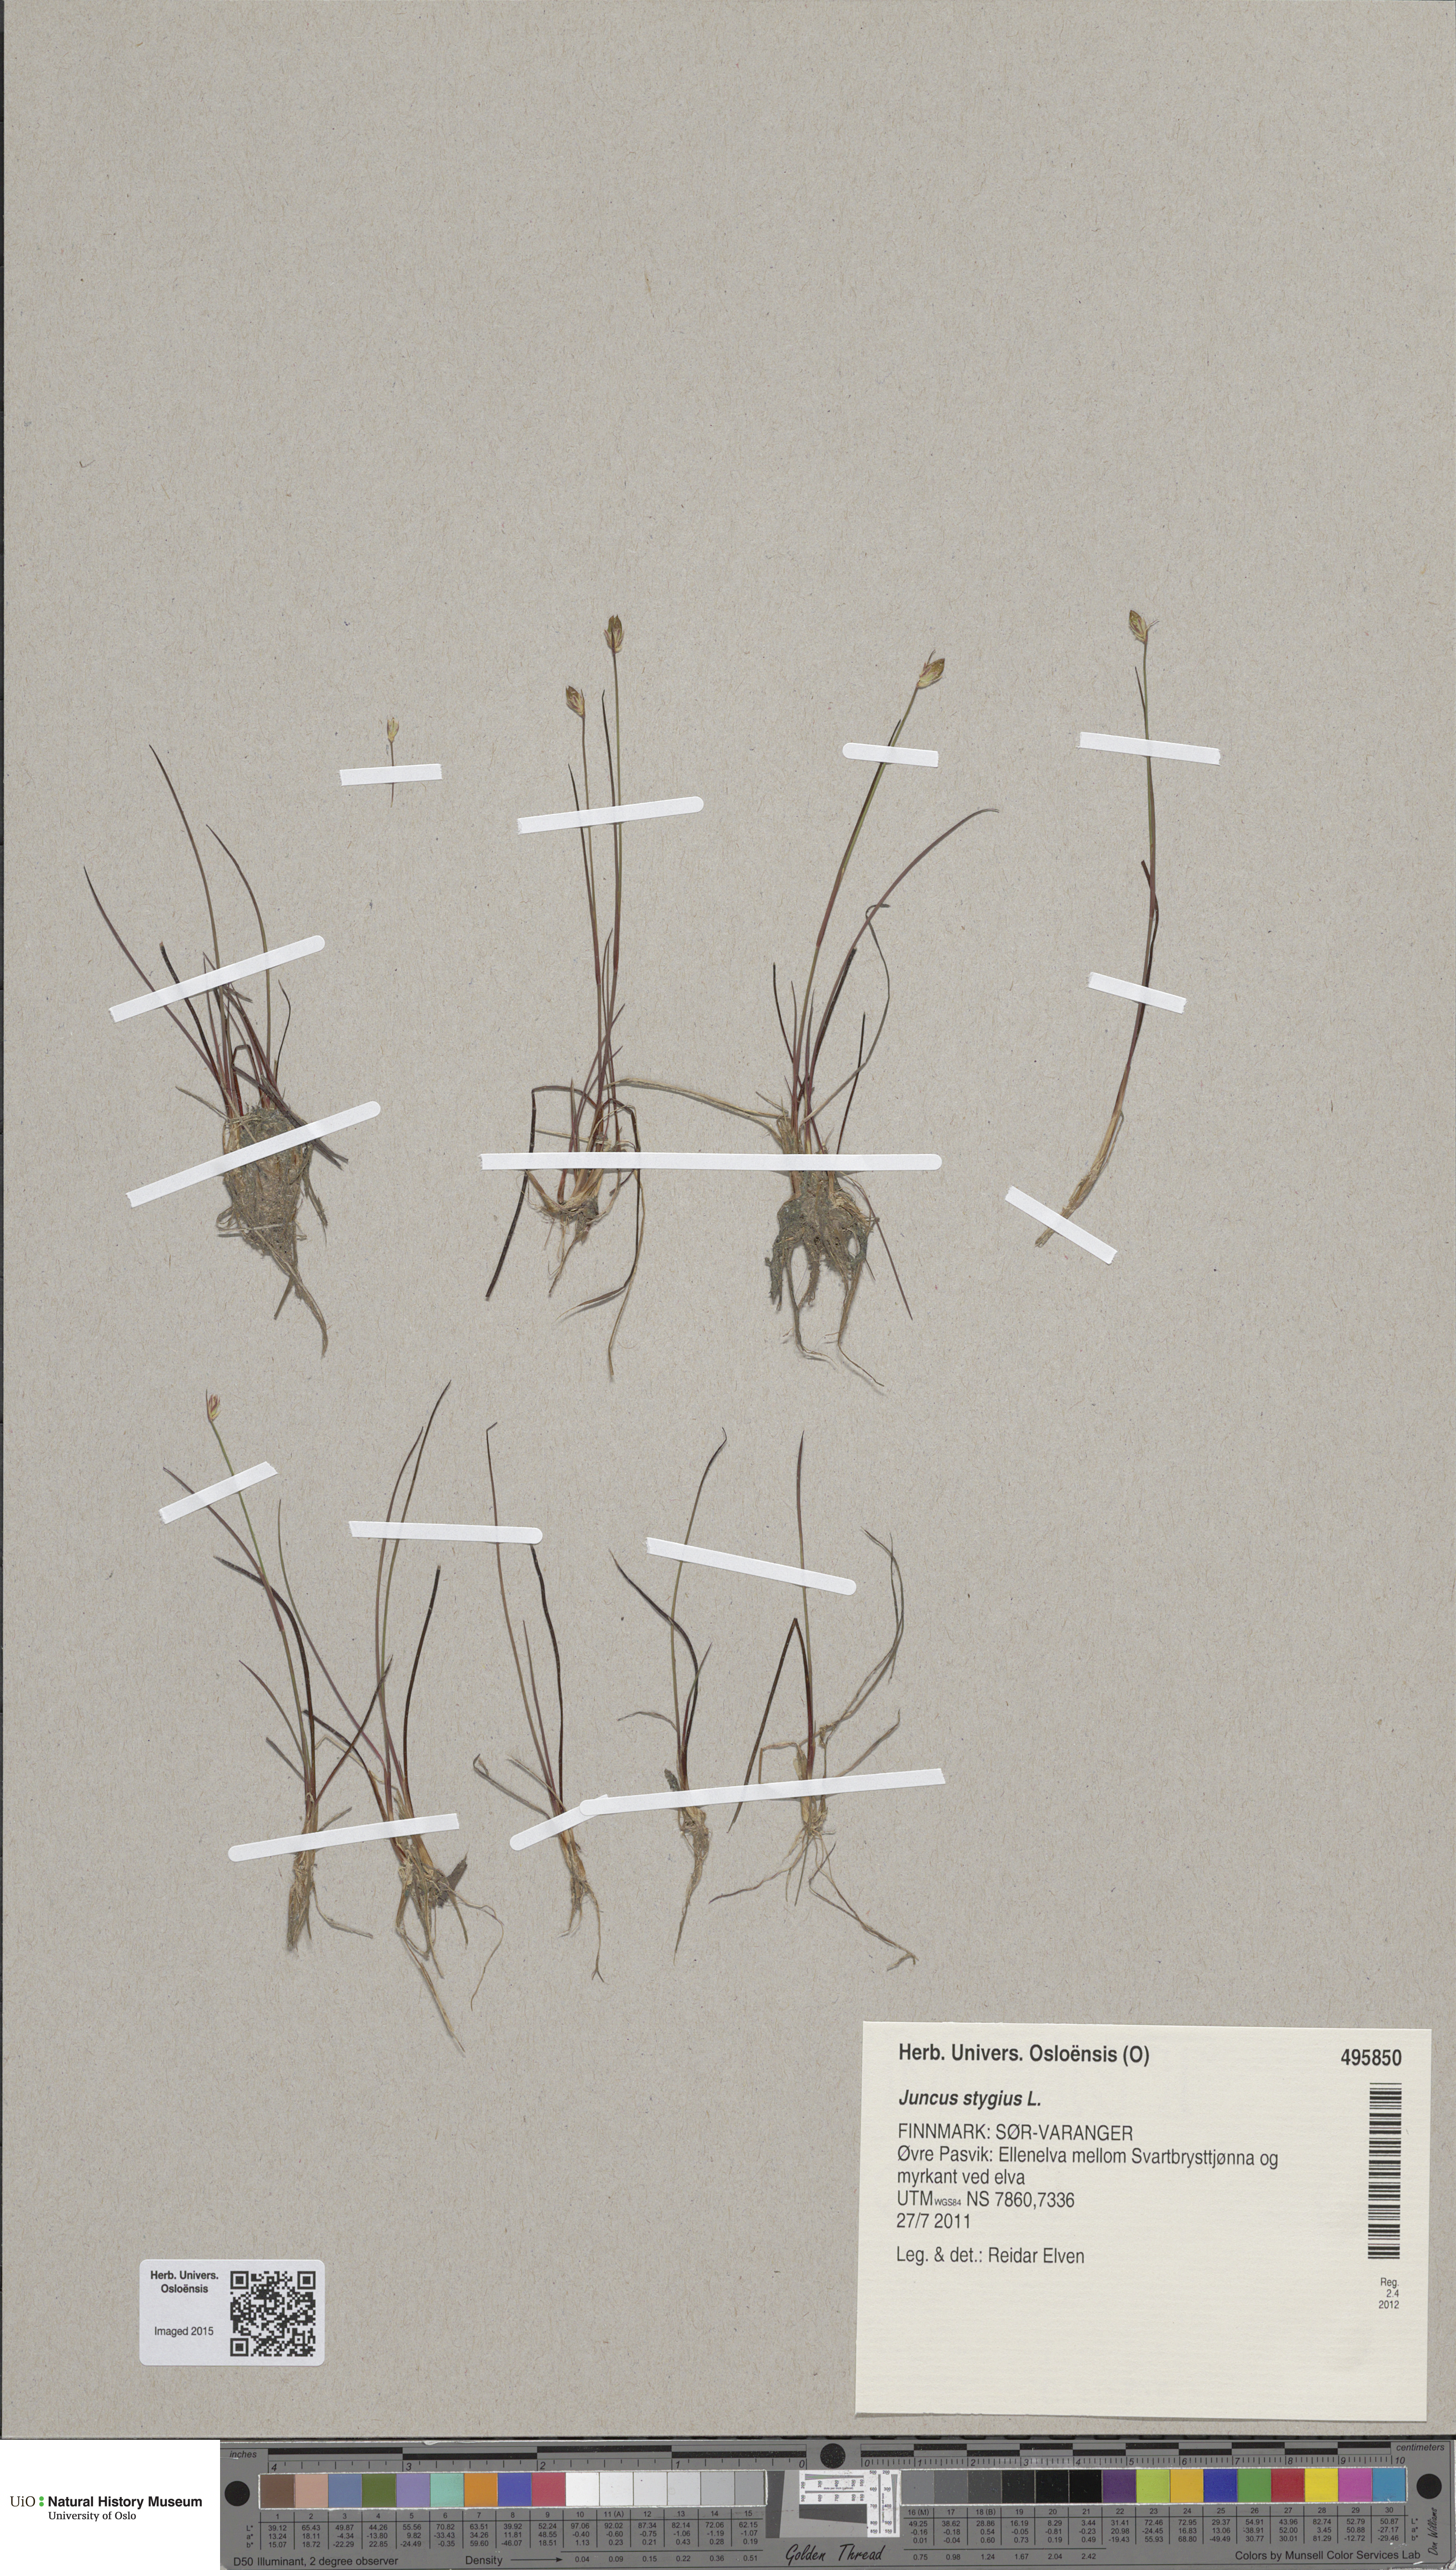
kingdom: Plantae
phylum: Tracheophyta
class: Liliopsida
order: Poales
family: Juncaceae
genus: Juncus
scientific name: Juncus stygius
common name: Bog rush
